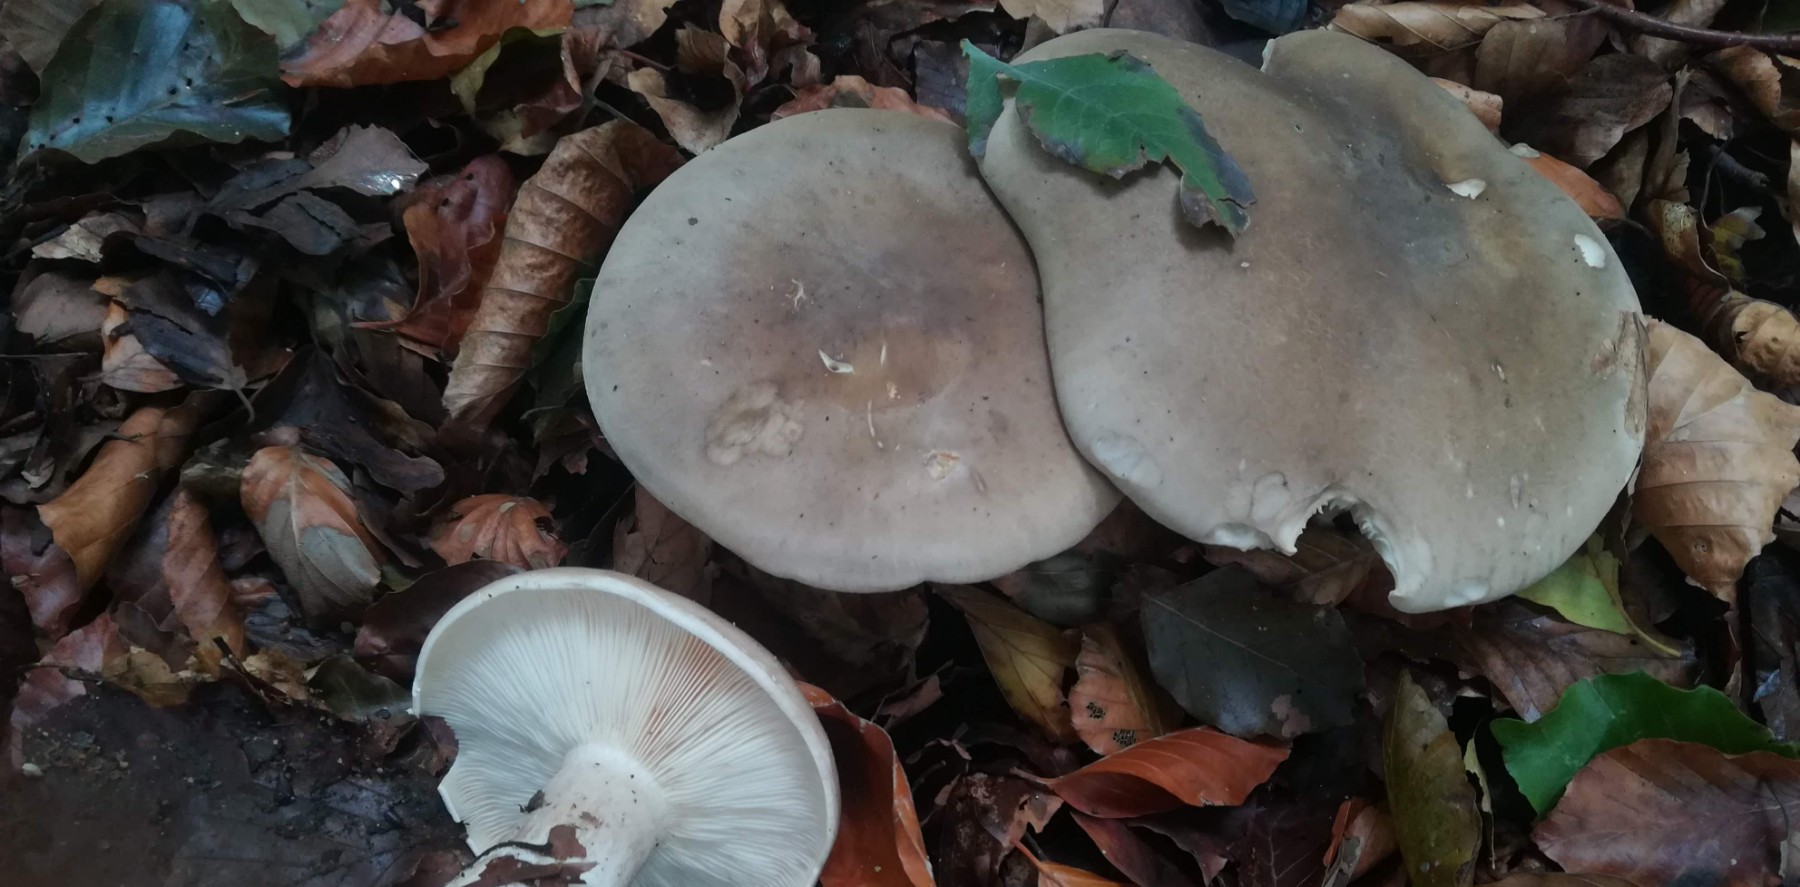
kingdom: Fungi
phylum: Basidiomycota
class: Agaricomycetes
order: Agaricales
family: Tricholomataceae
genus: Clitocybe
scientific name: Clitocybe nebularis
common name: tåge-tragthat
